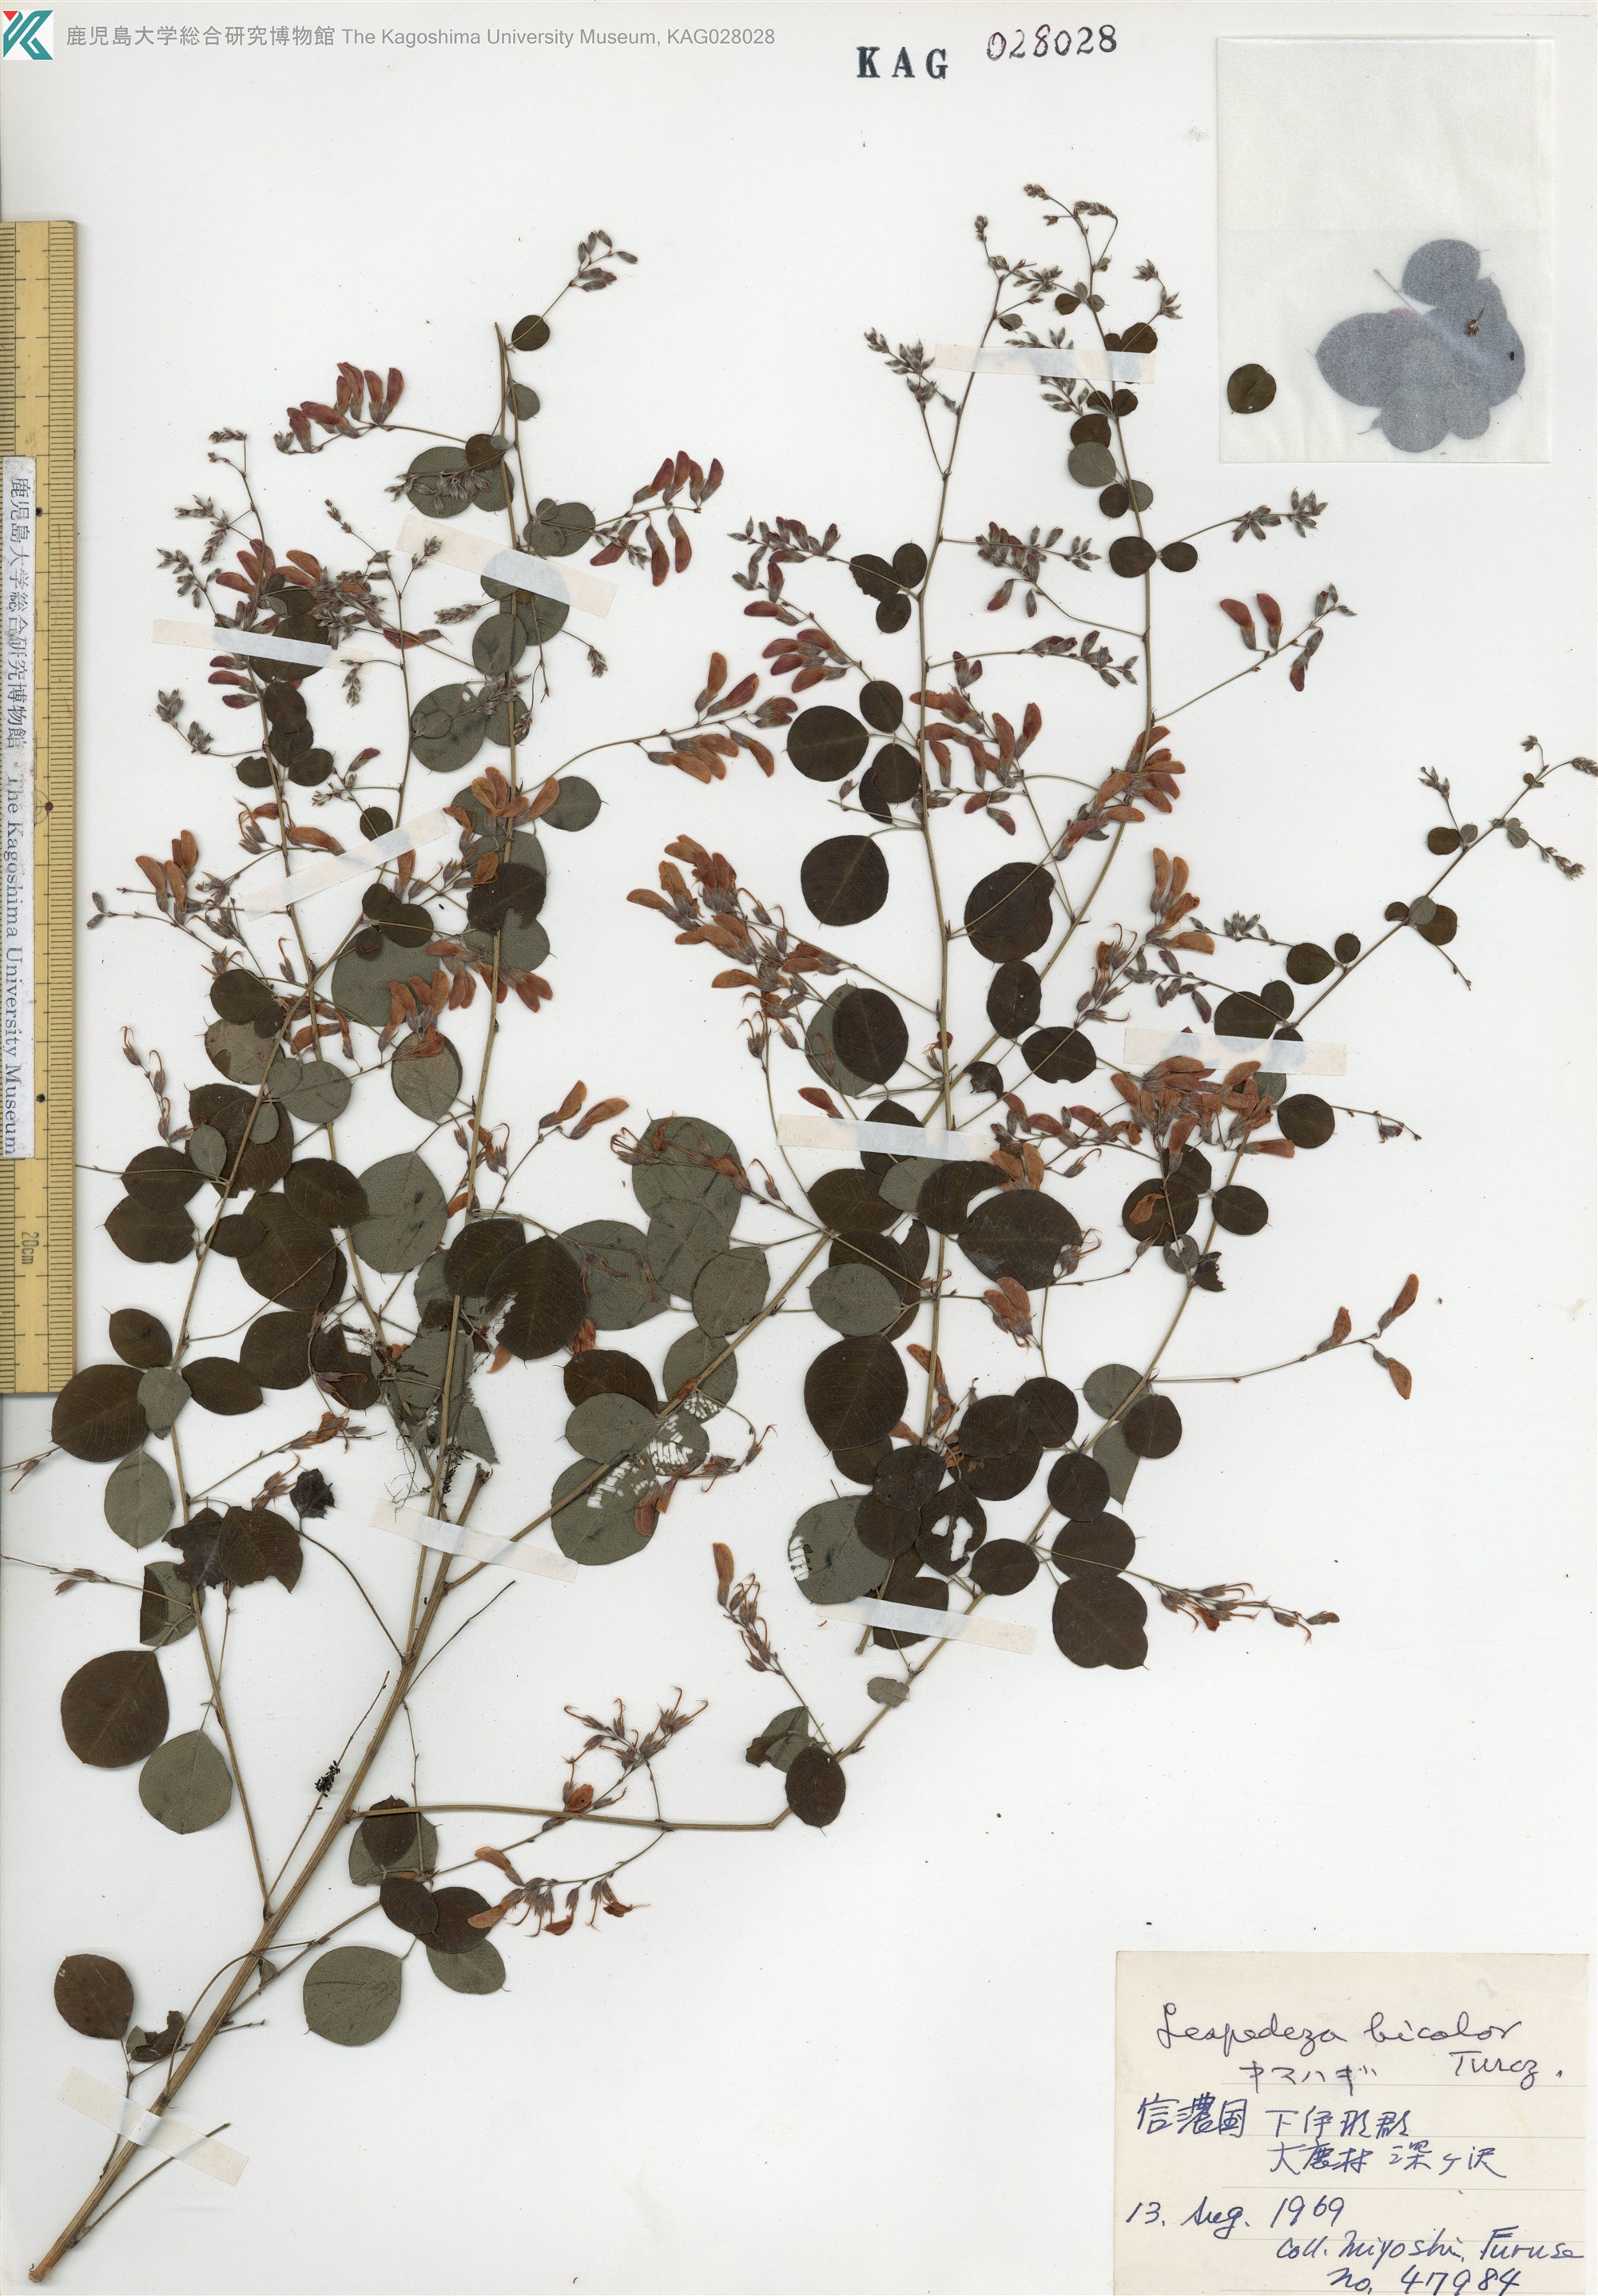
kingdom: Plantae
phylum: Tracheophyta
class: Magnoliopsida
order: Fabales
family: Fabaceae
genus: Lespedeza
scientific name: Lespedeza bicolor
